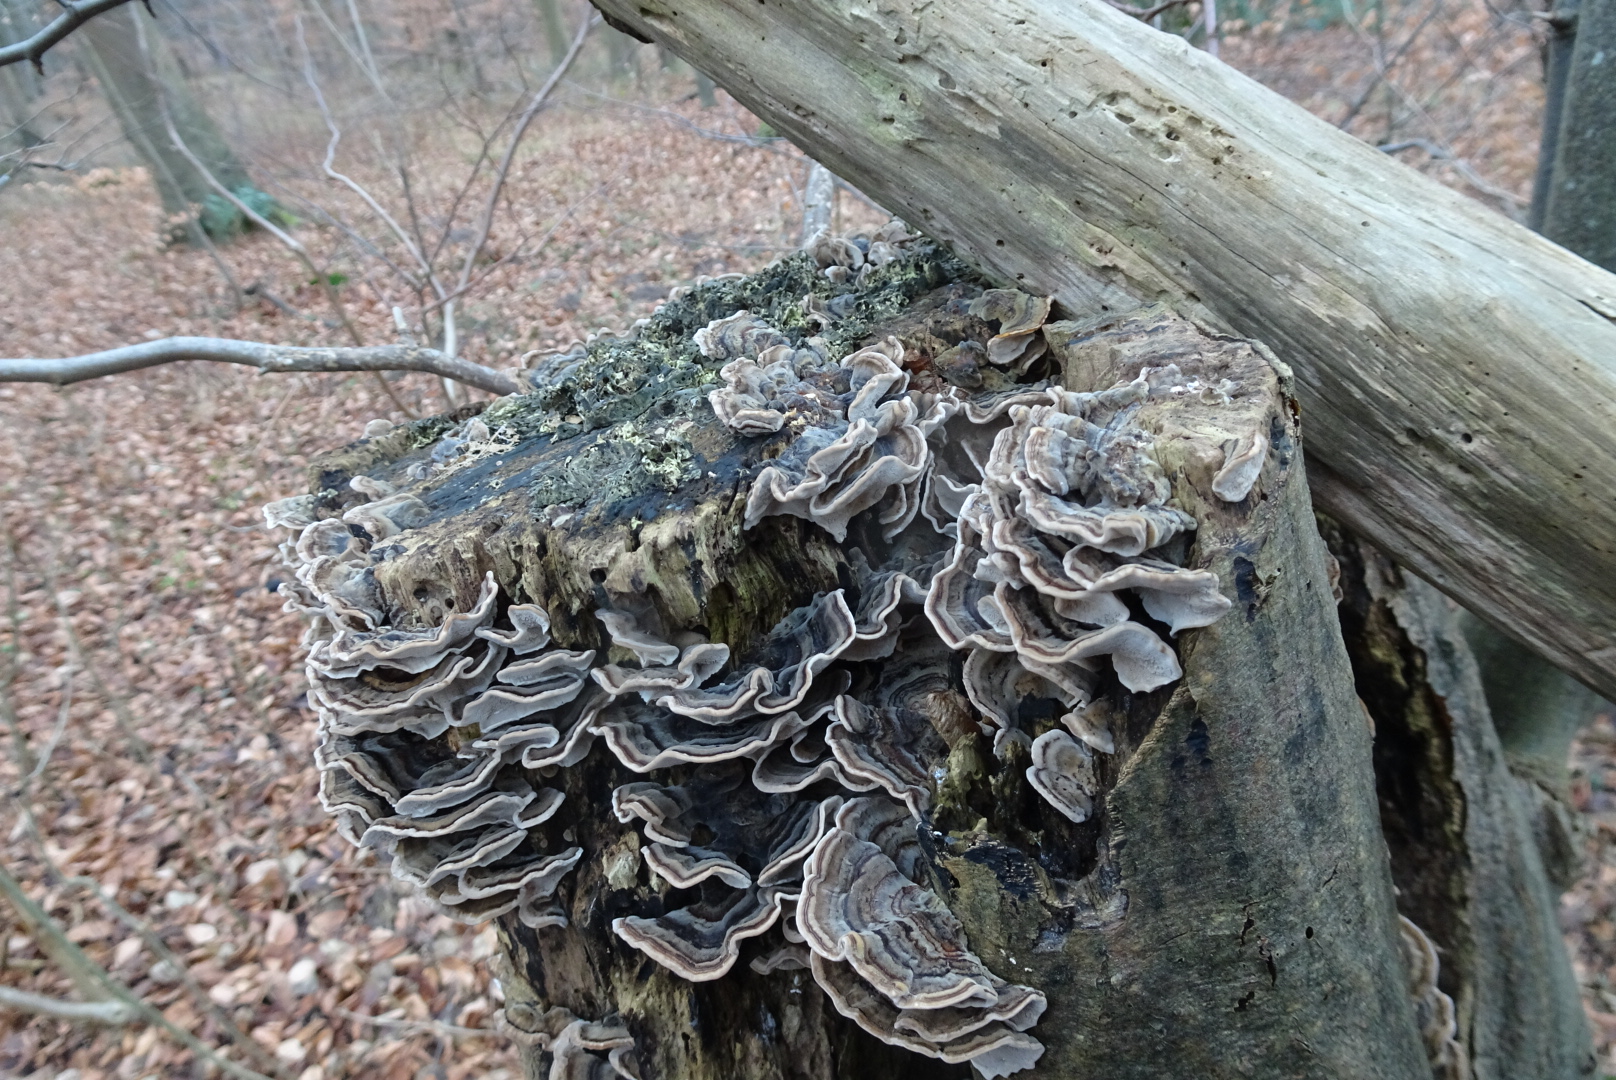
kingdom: Fungi
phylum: Basidiomycota
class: Agaricomycetes
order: Polyporales
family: Polyporaceae
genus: Trametes
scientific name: Trametes versicolor
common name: broget læderporesvamp
